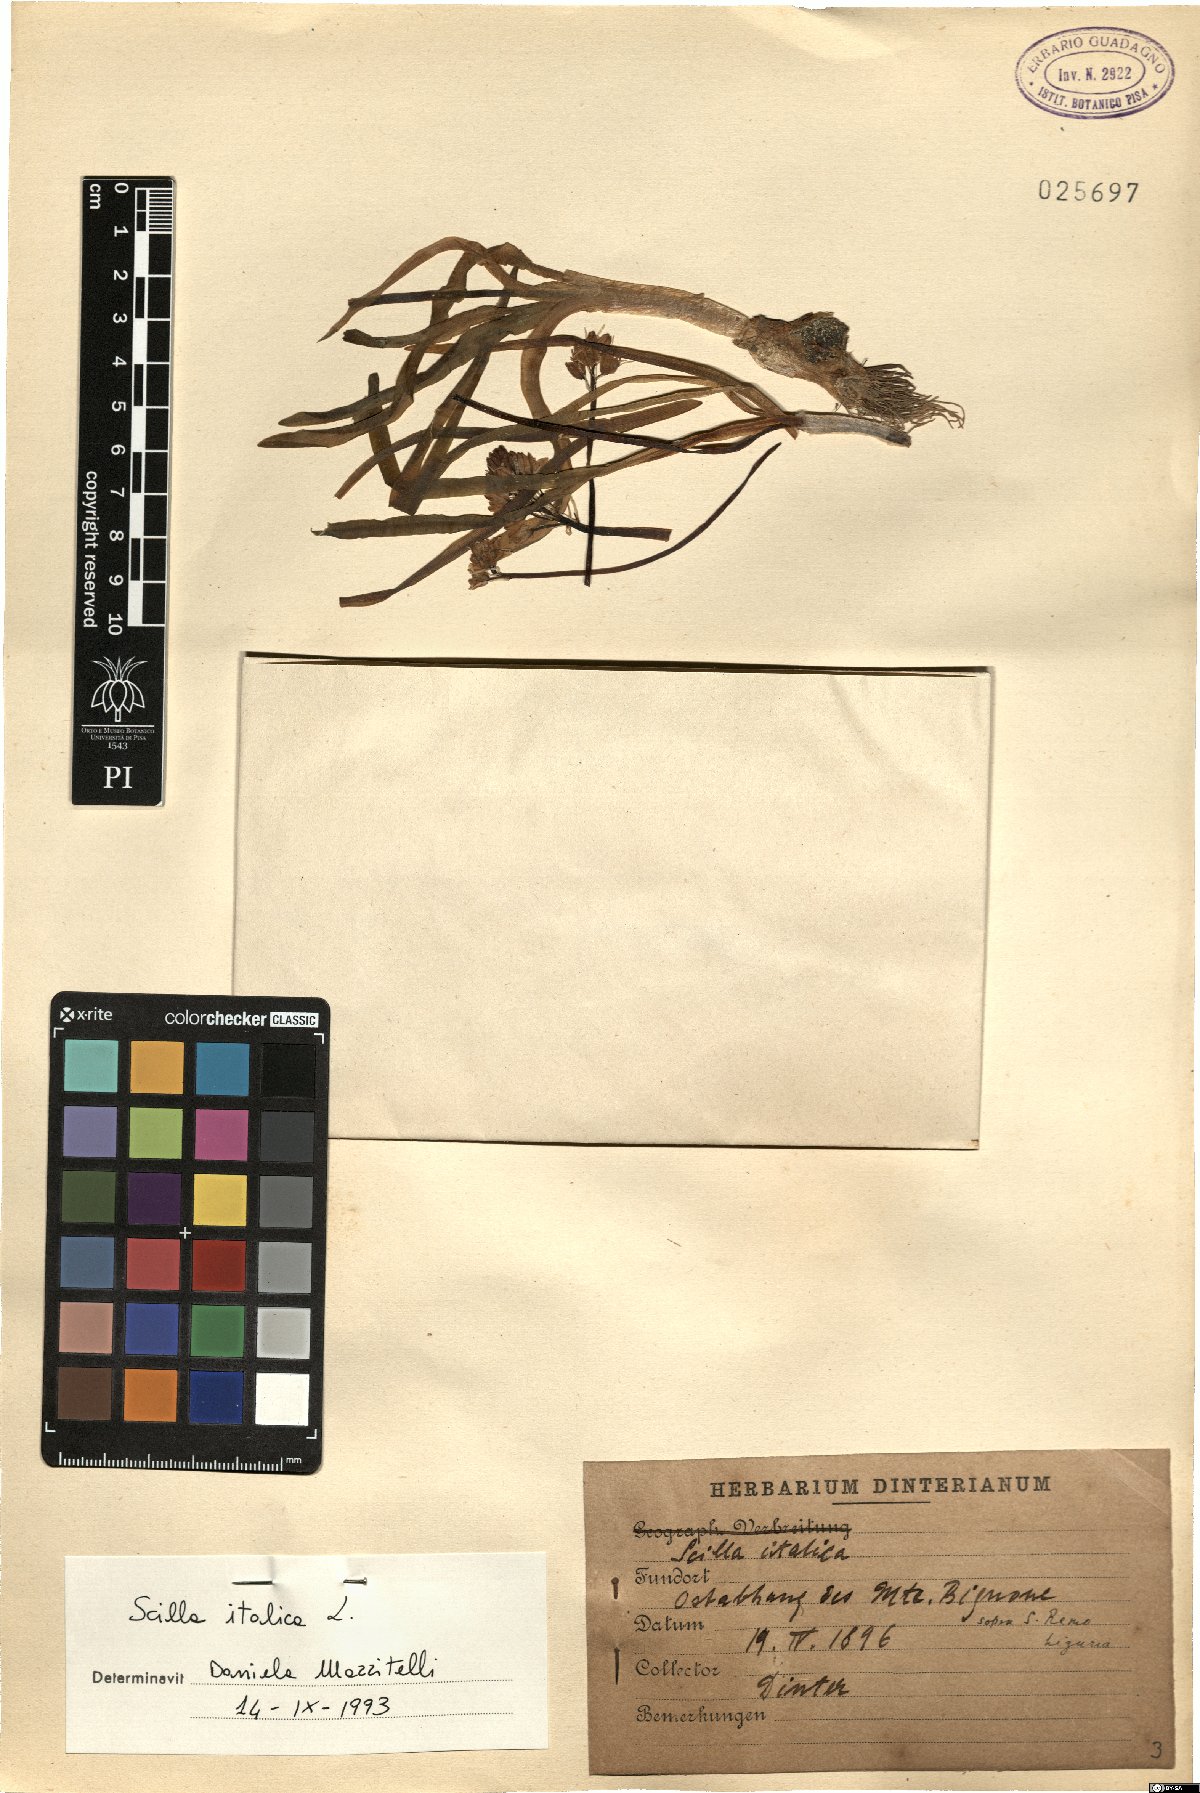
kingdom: Plantae
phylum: Tracheophyta
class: Liliopsida
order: Asparagales
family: Asparagaceae
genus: Hyacinthoides
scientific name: Hyacinthoides italica
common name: Italian bluebell
